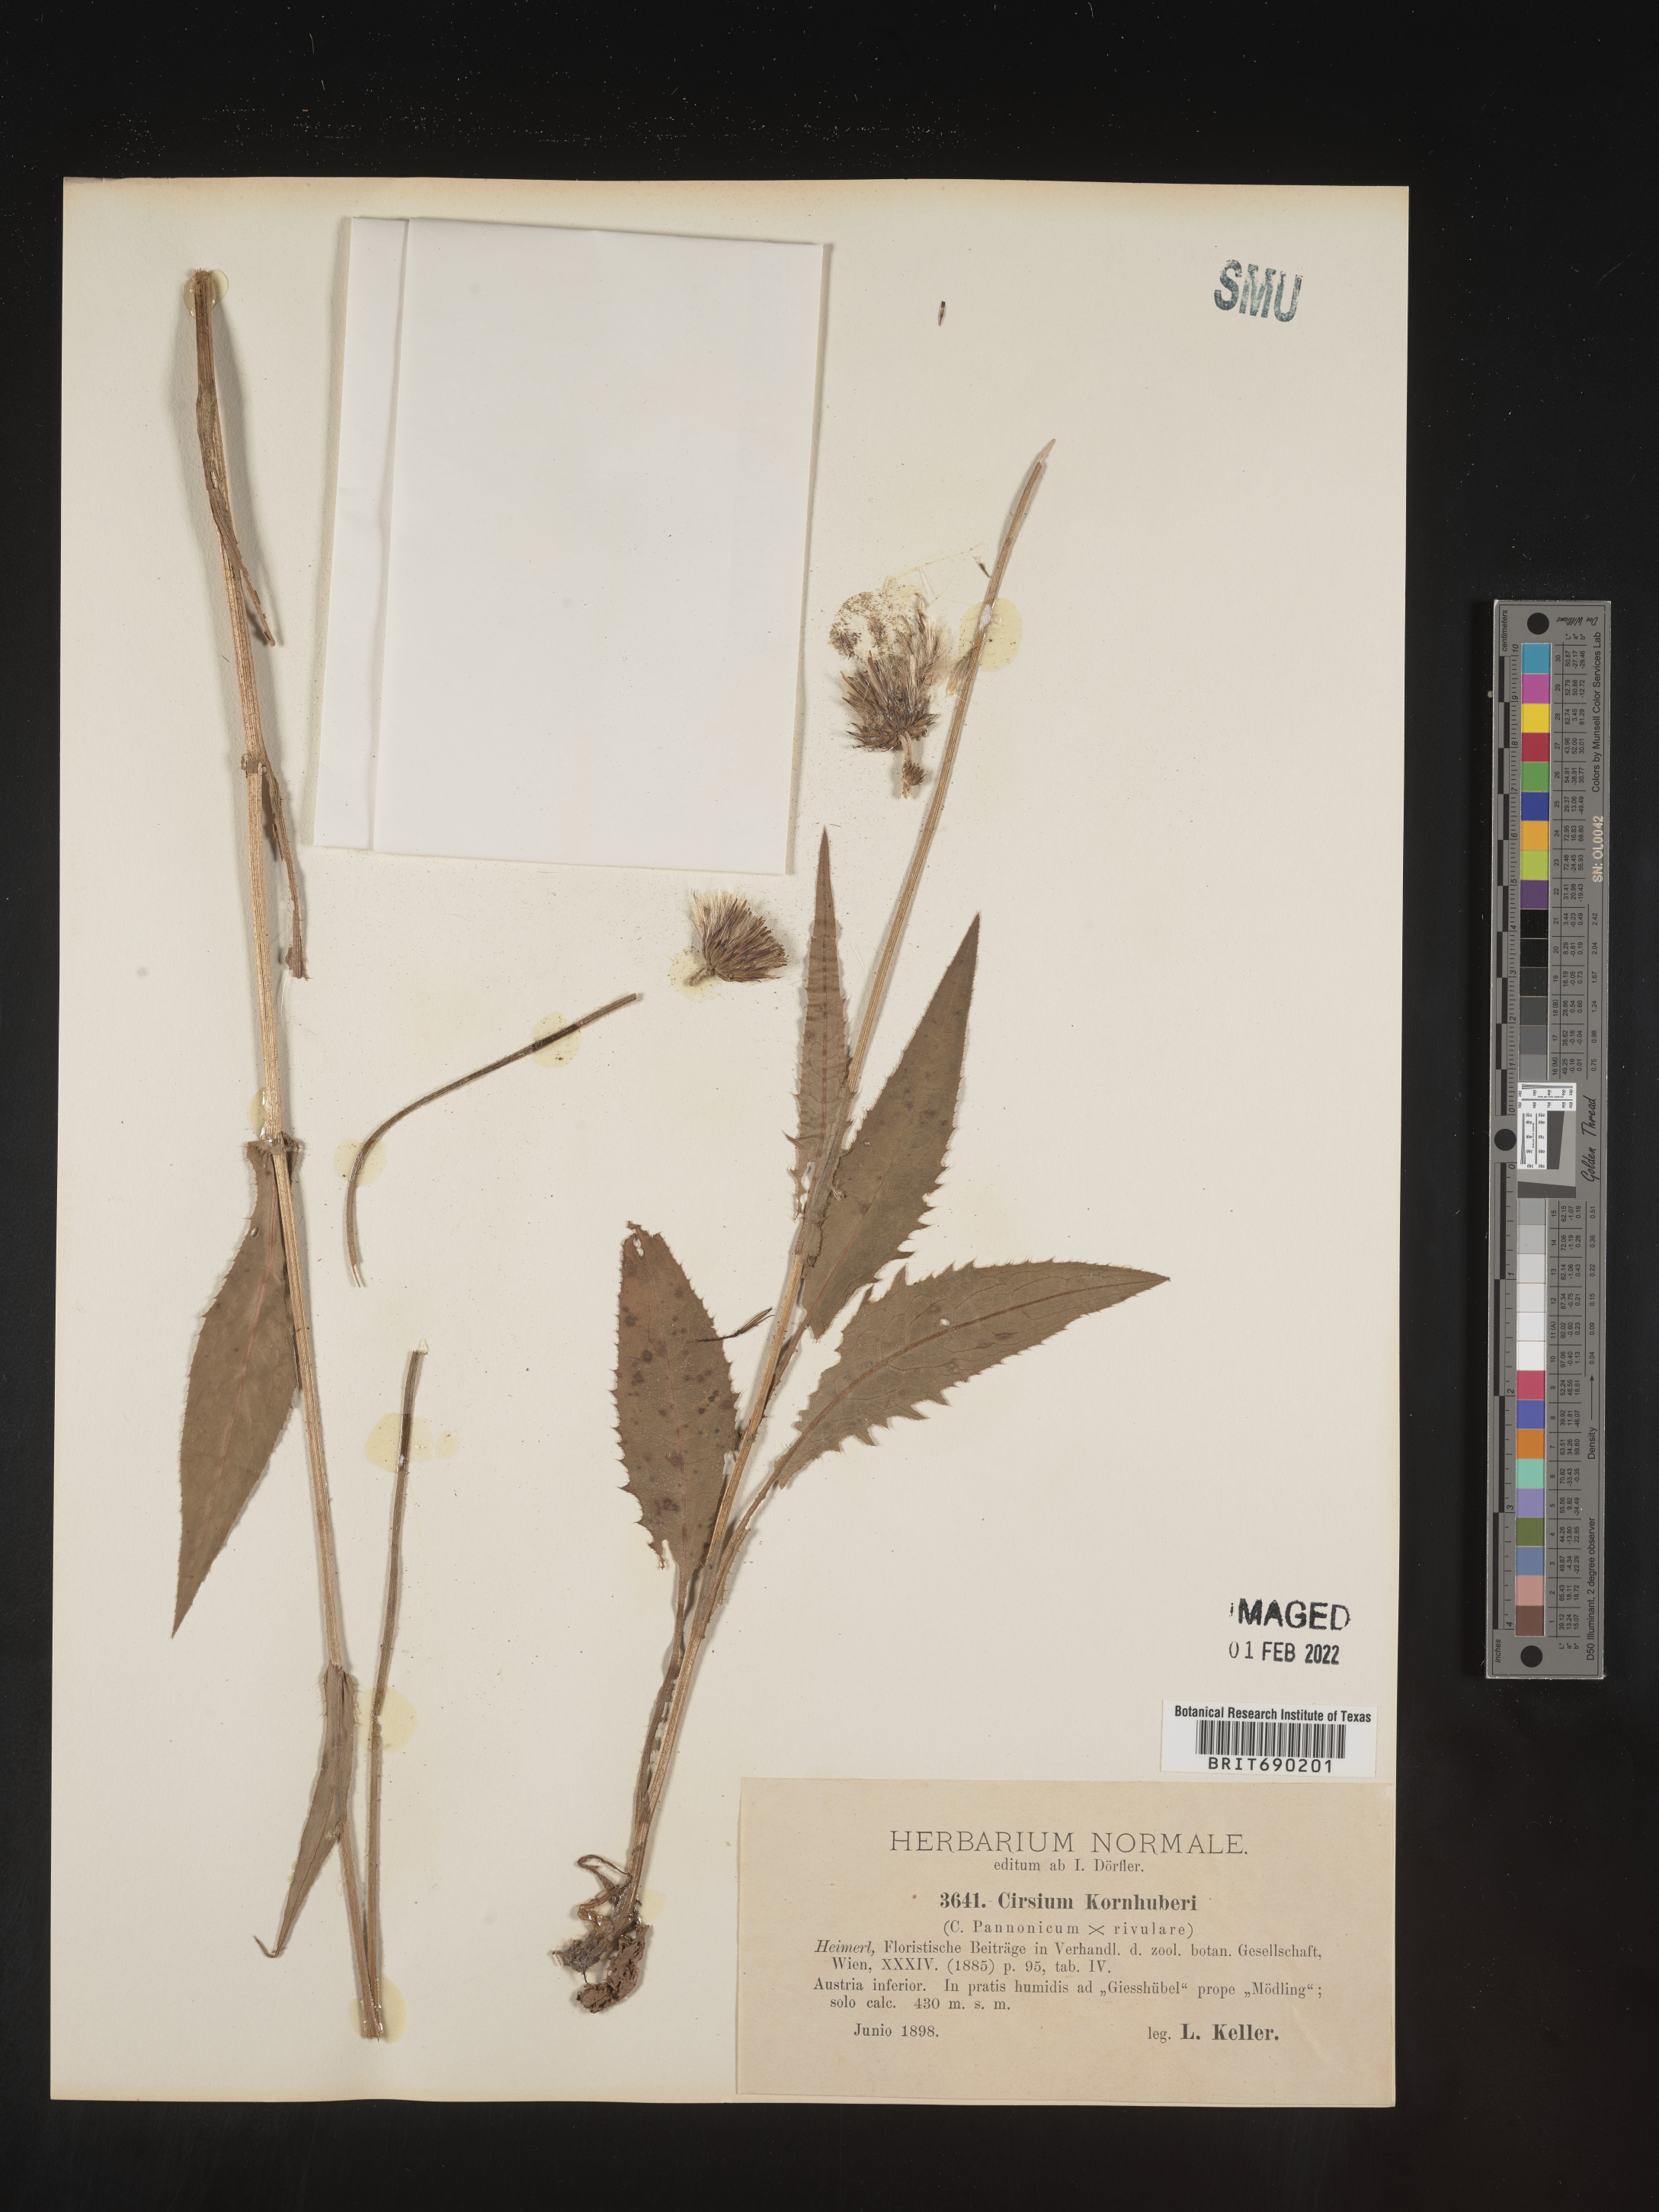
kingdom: Plantae
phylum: Tracheophyta
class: Magnoliopsida
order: Asterales
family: Asteraceae
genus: Cirsium
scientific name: Cirsium
